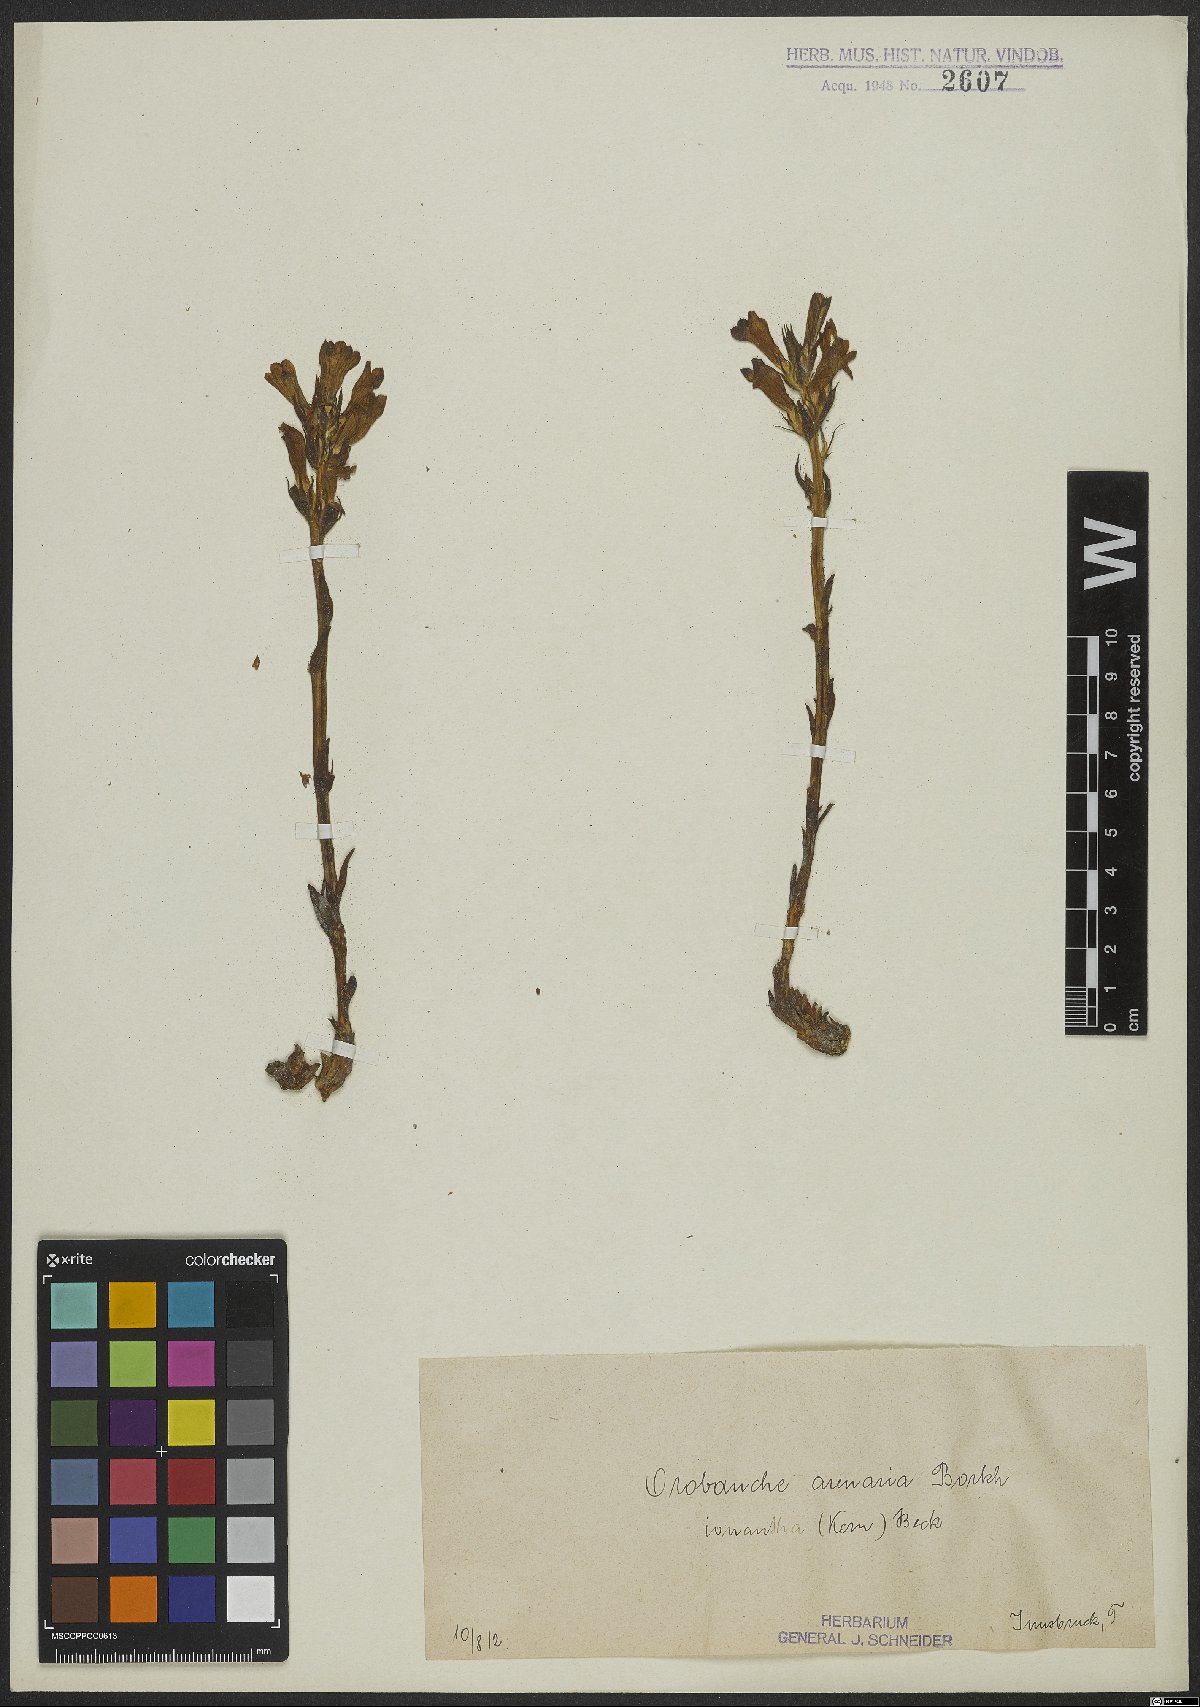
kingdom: Plantae
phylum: Tracheophyta
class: Magnoliopsida
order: Lamiales
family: Orobanchaceae
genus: Phelipanche
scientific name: Phelipanche arenaria
